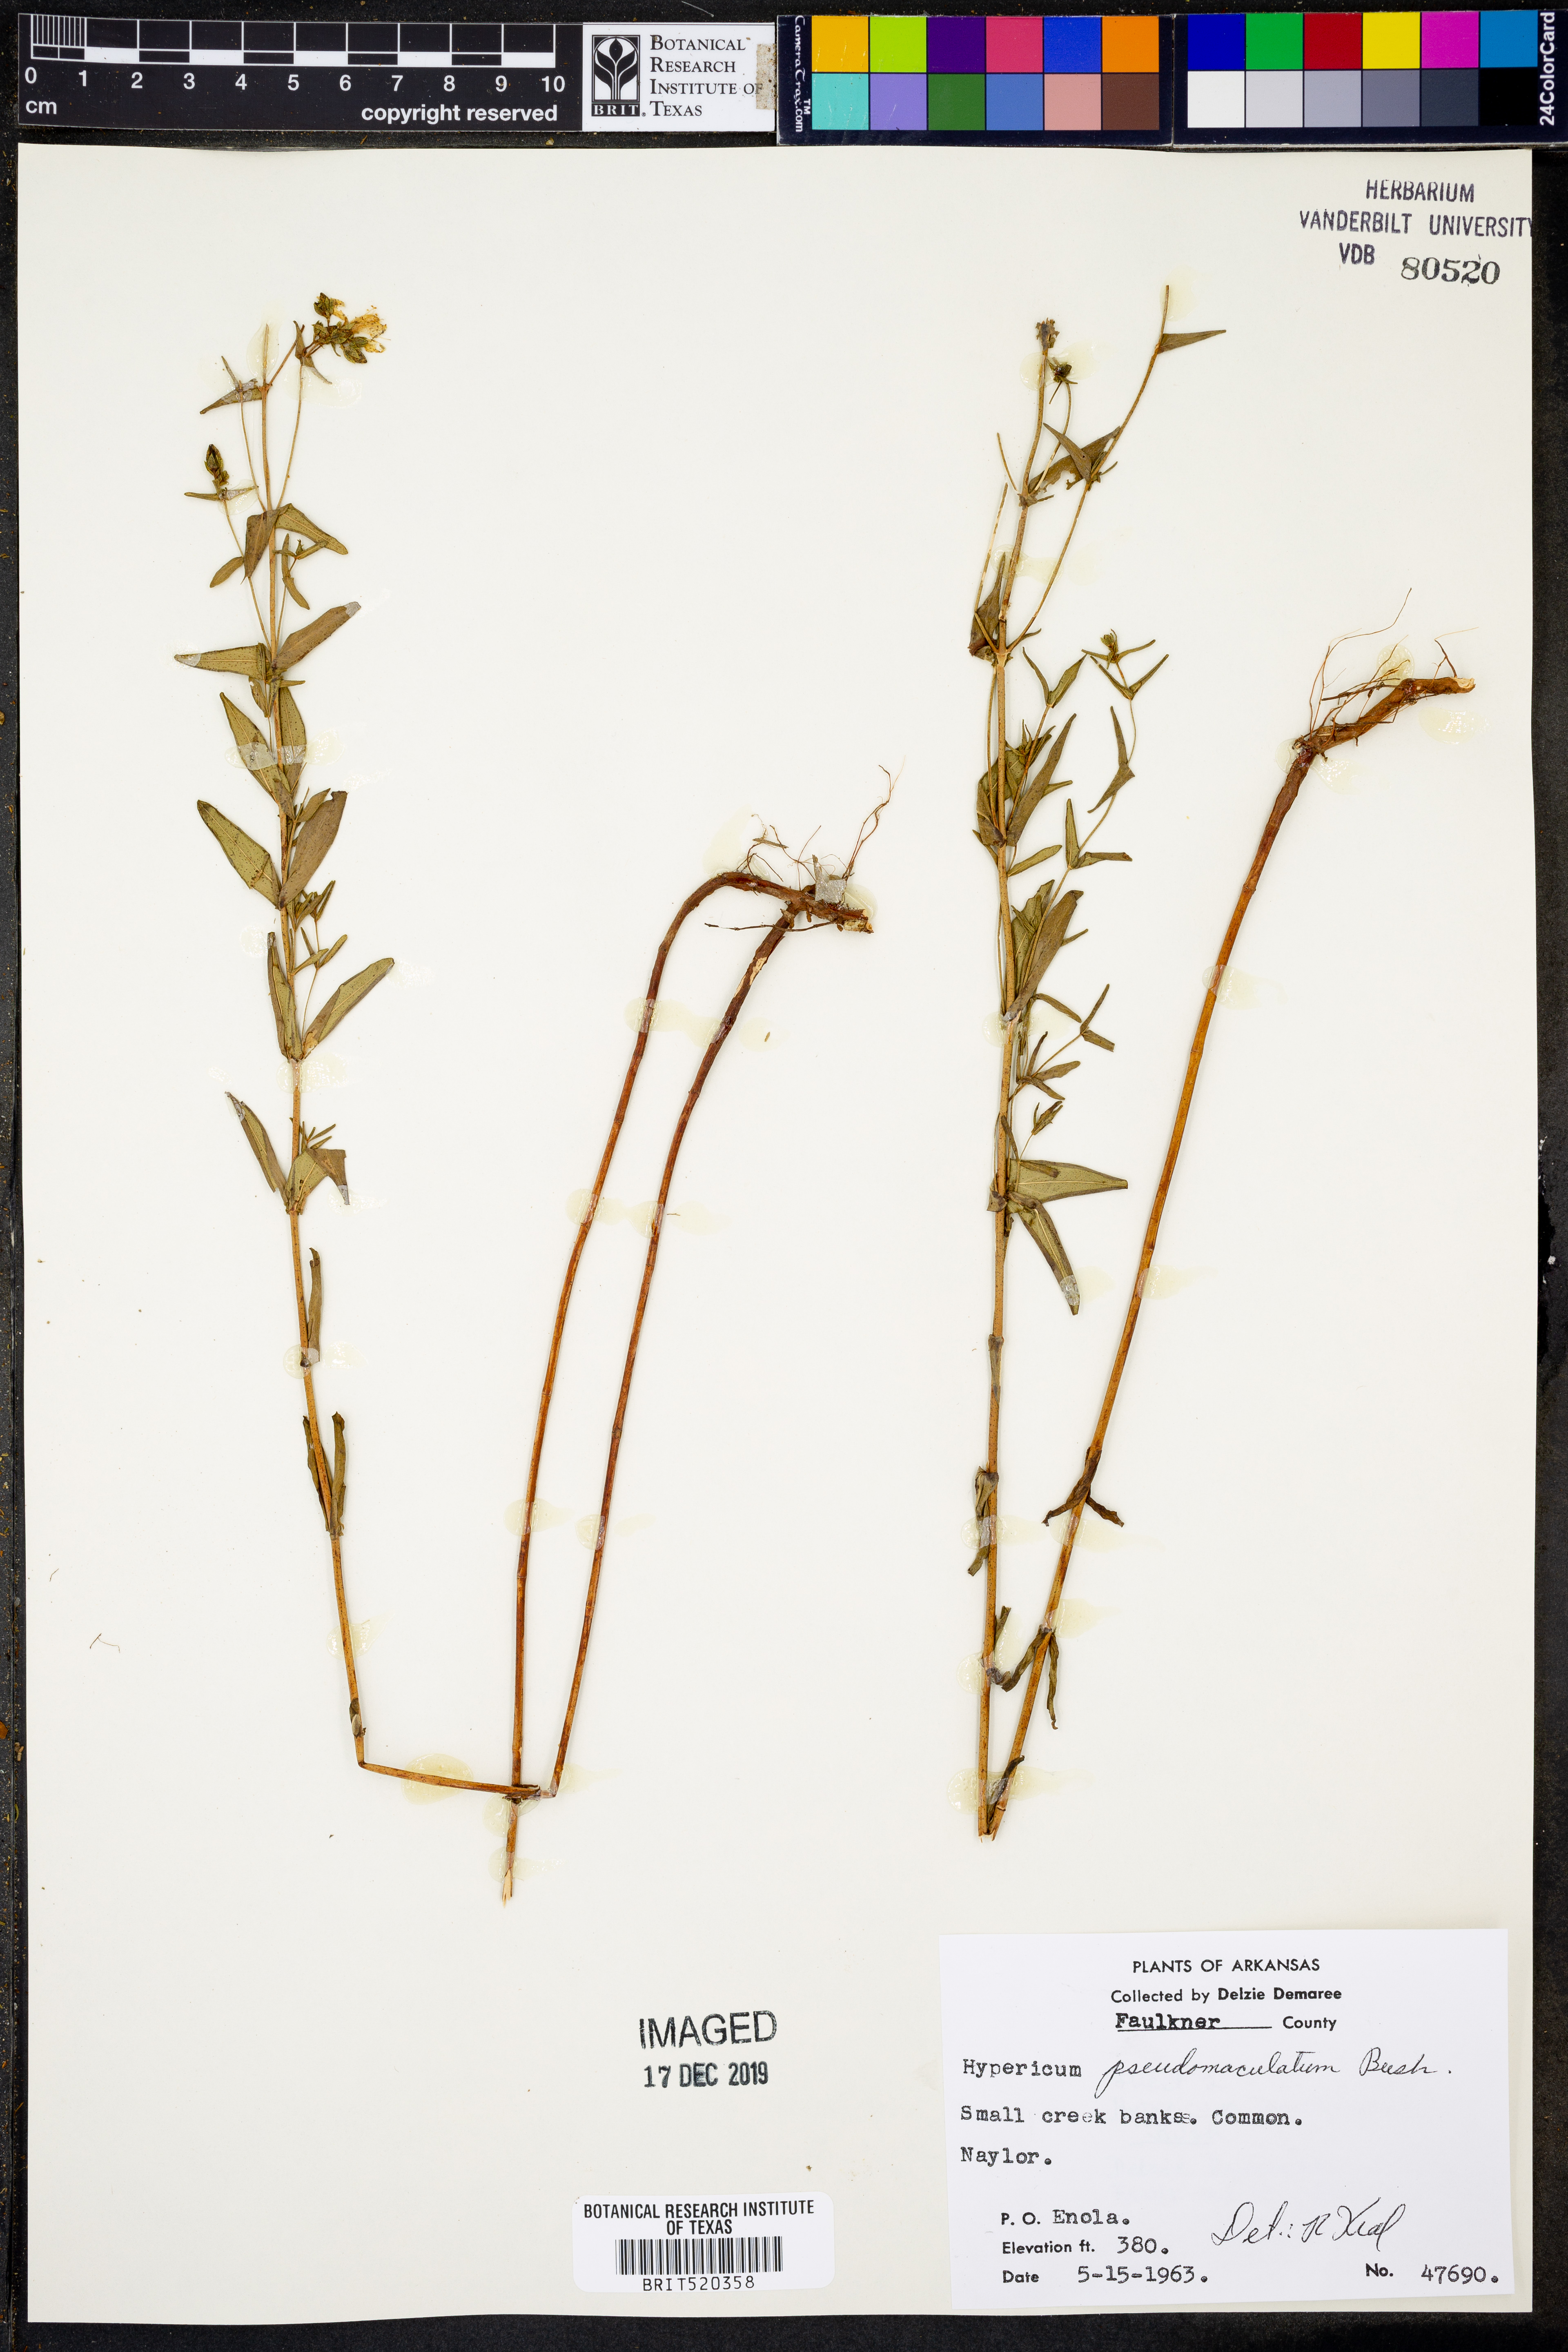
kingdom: Plantae
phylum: Tracheophyta
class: Magnoliopsida
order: Malpighiales
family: Hypericaceae
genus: Hypericum
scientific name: Hypericum pseudomaculatum
